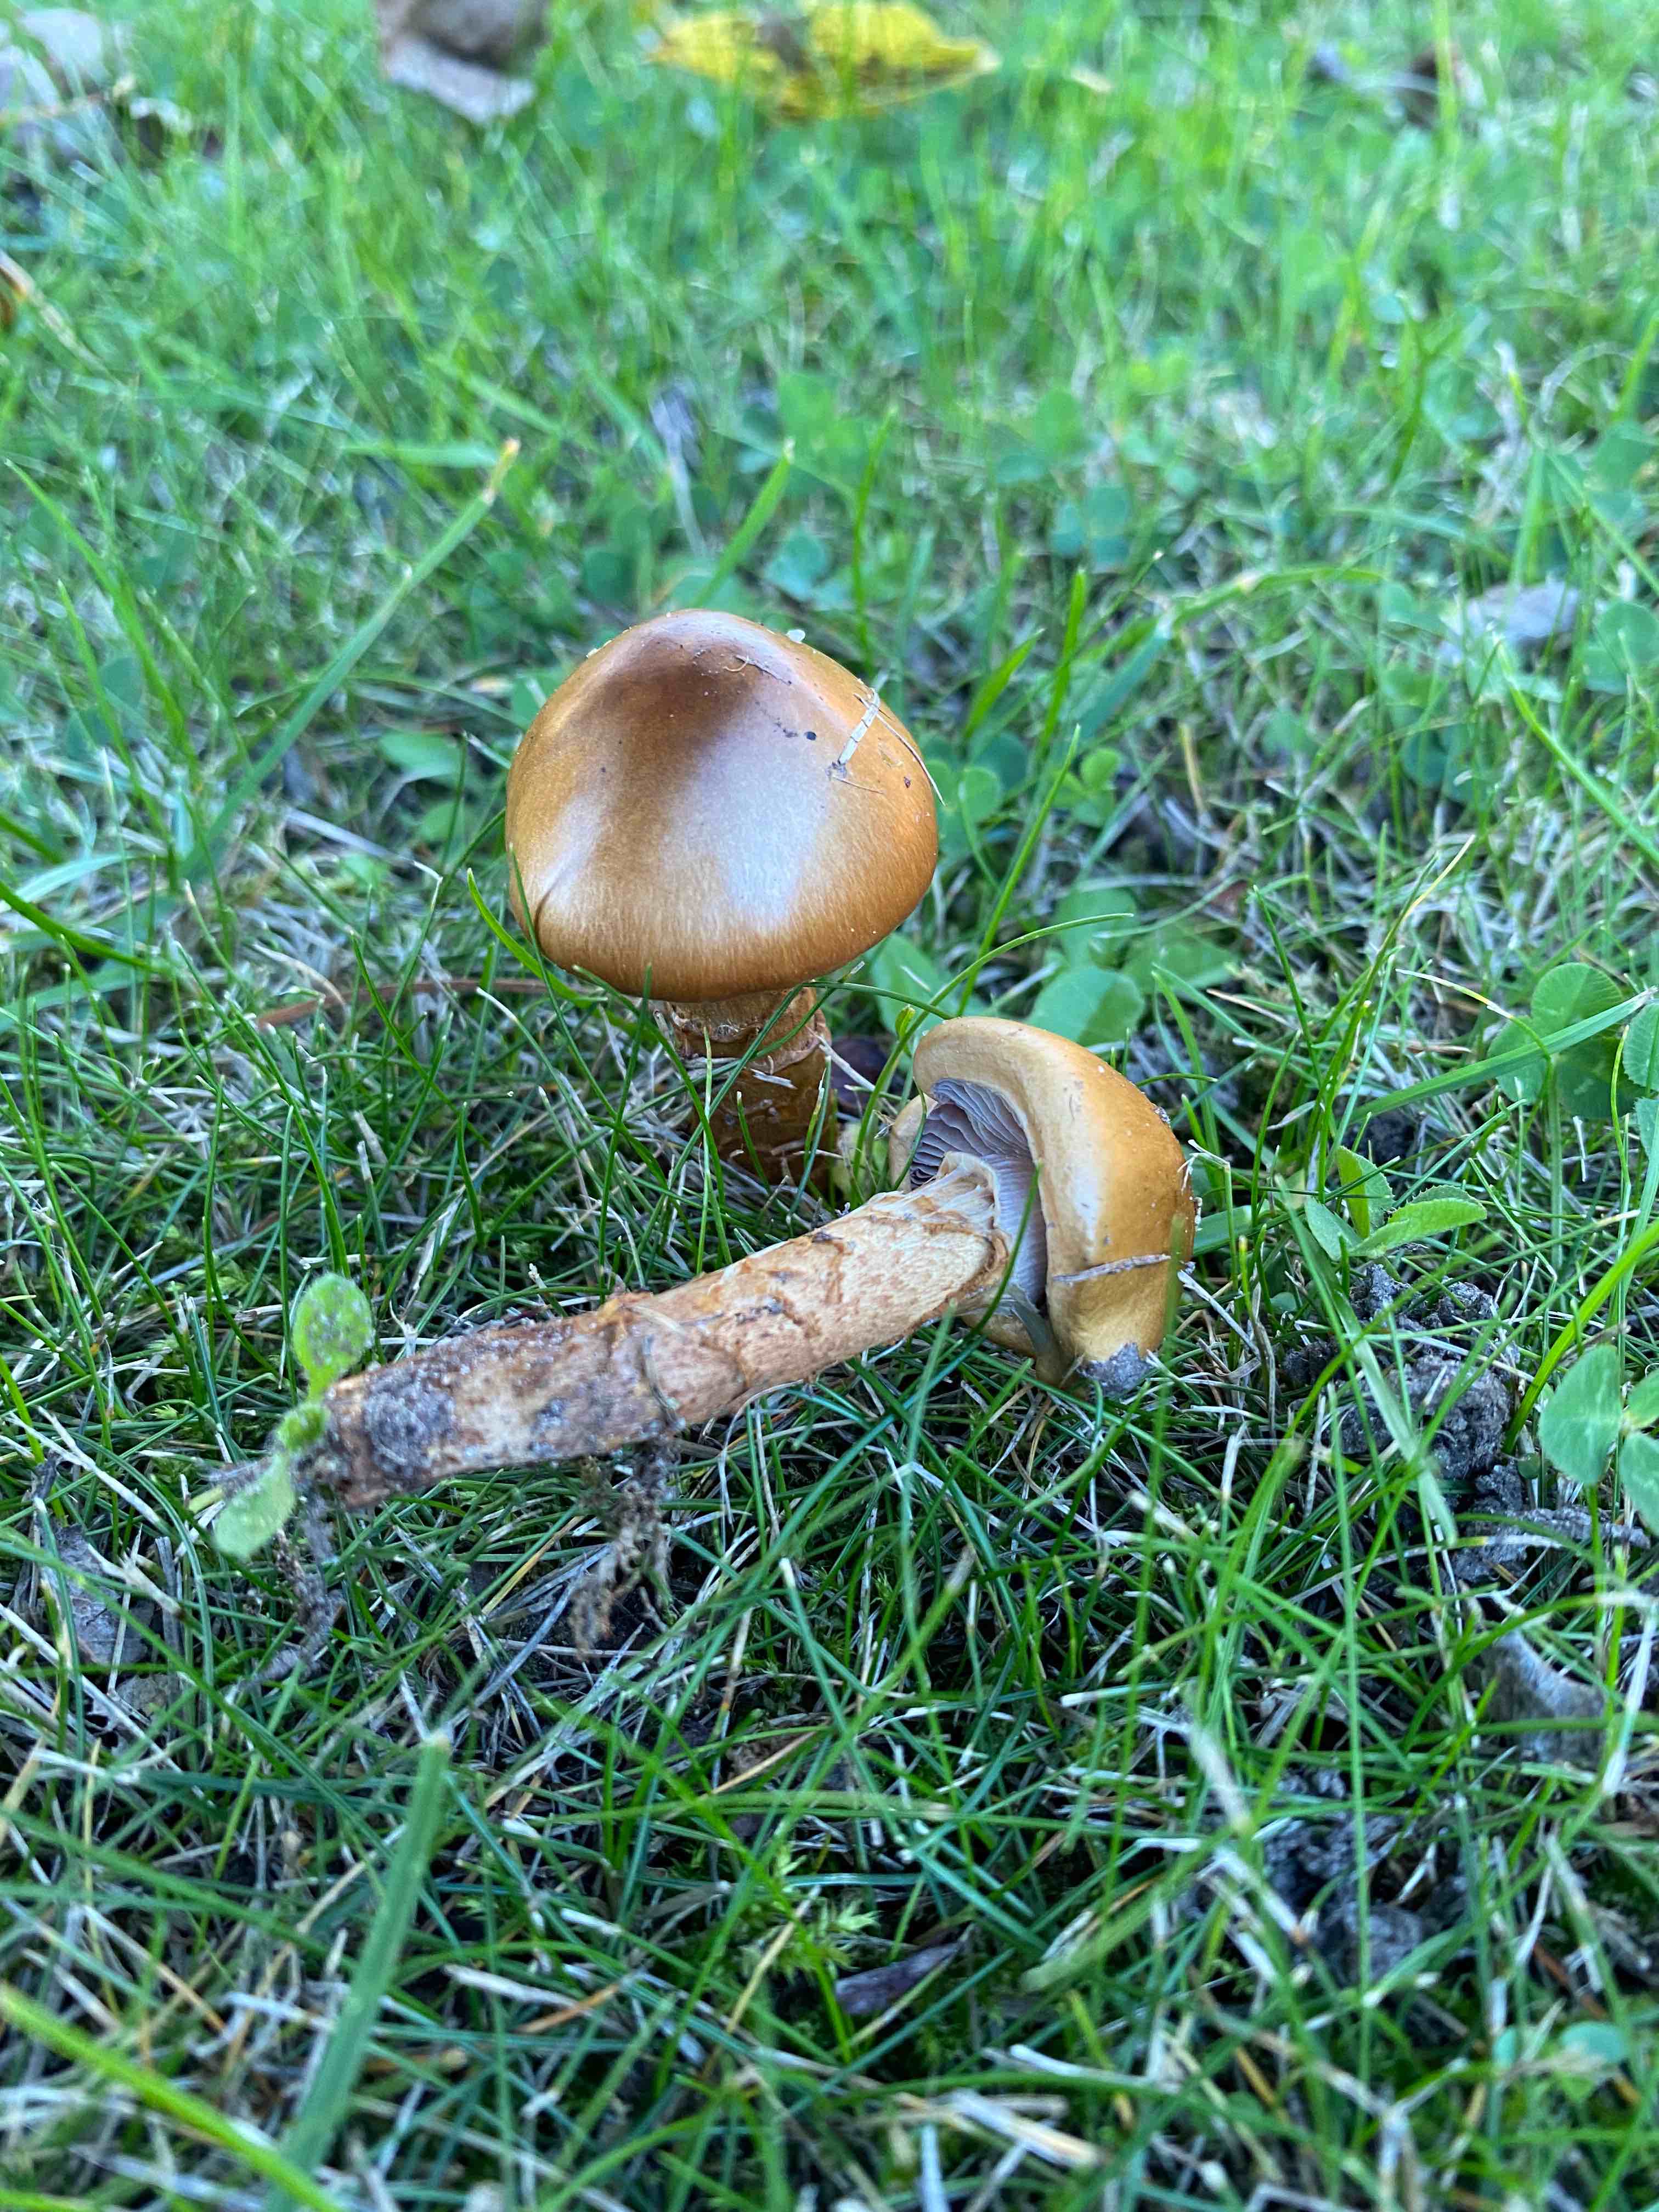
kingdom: Fungi
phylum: Basidiomycota
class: Agaricomycetes
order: Agaricales
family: Cortinariaceae
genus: Cortinarius
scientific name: Cortinarius trivialis
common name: Girdled webcap
